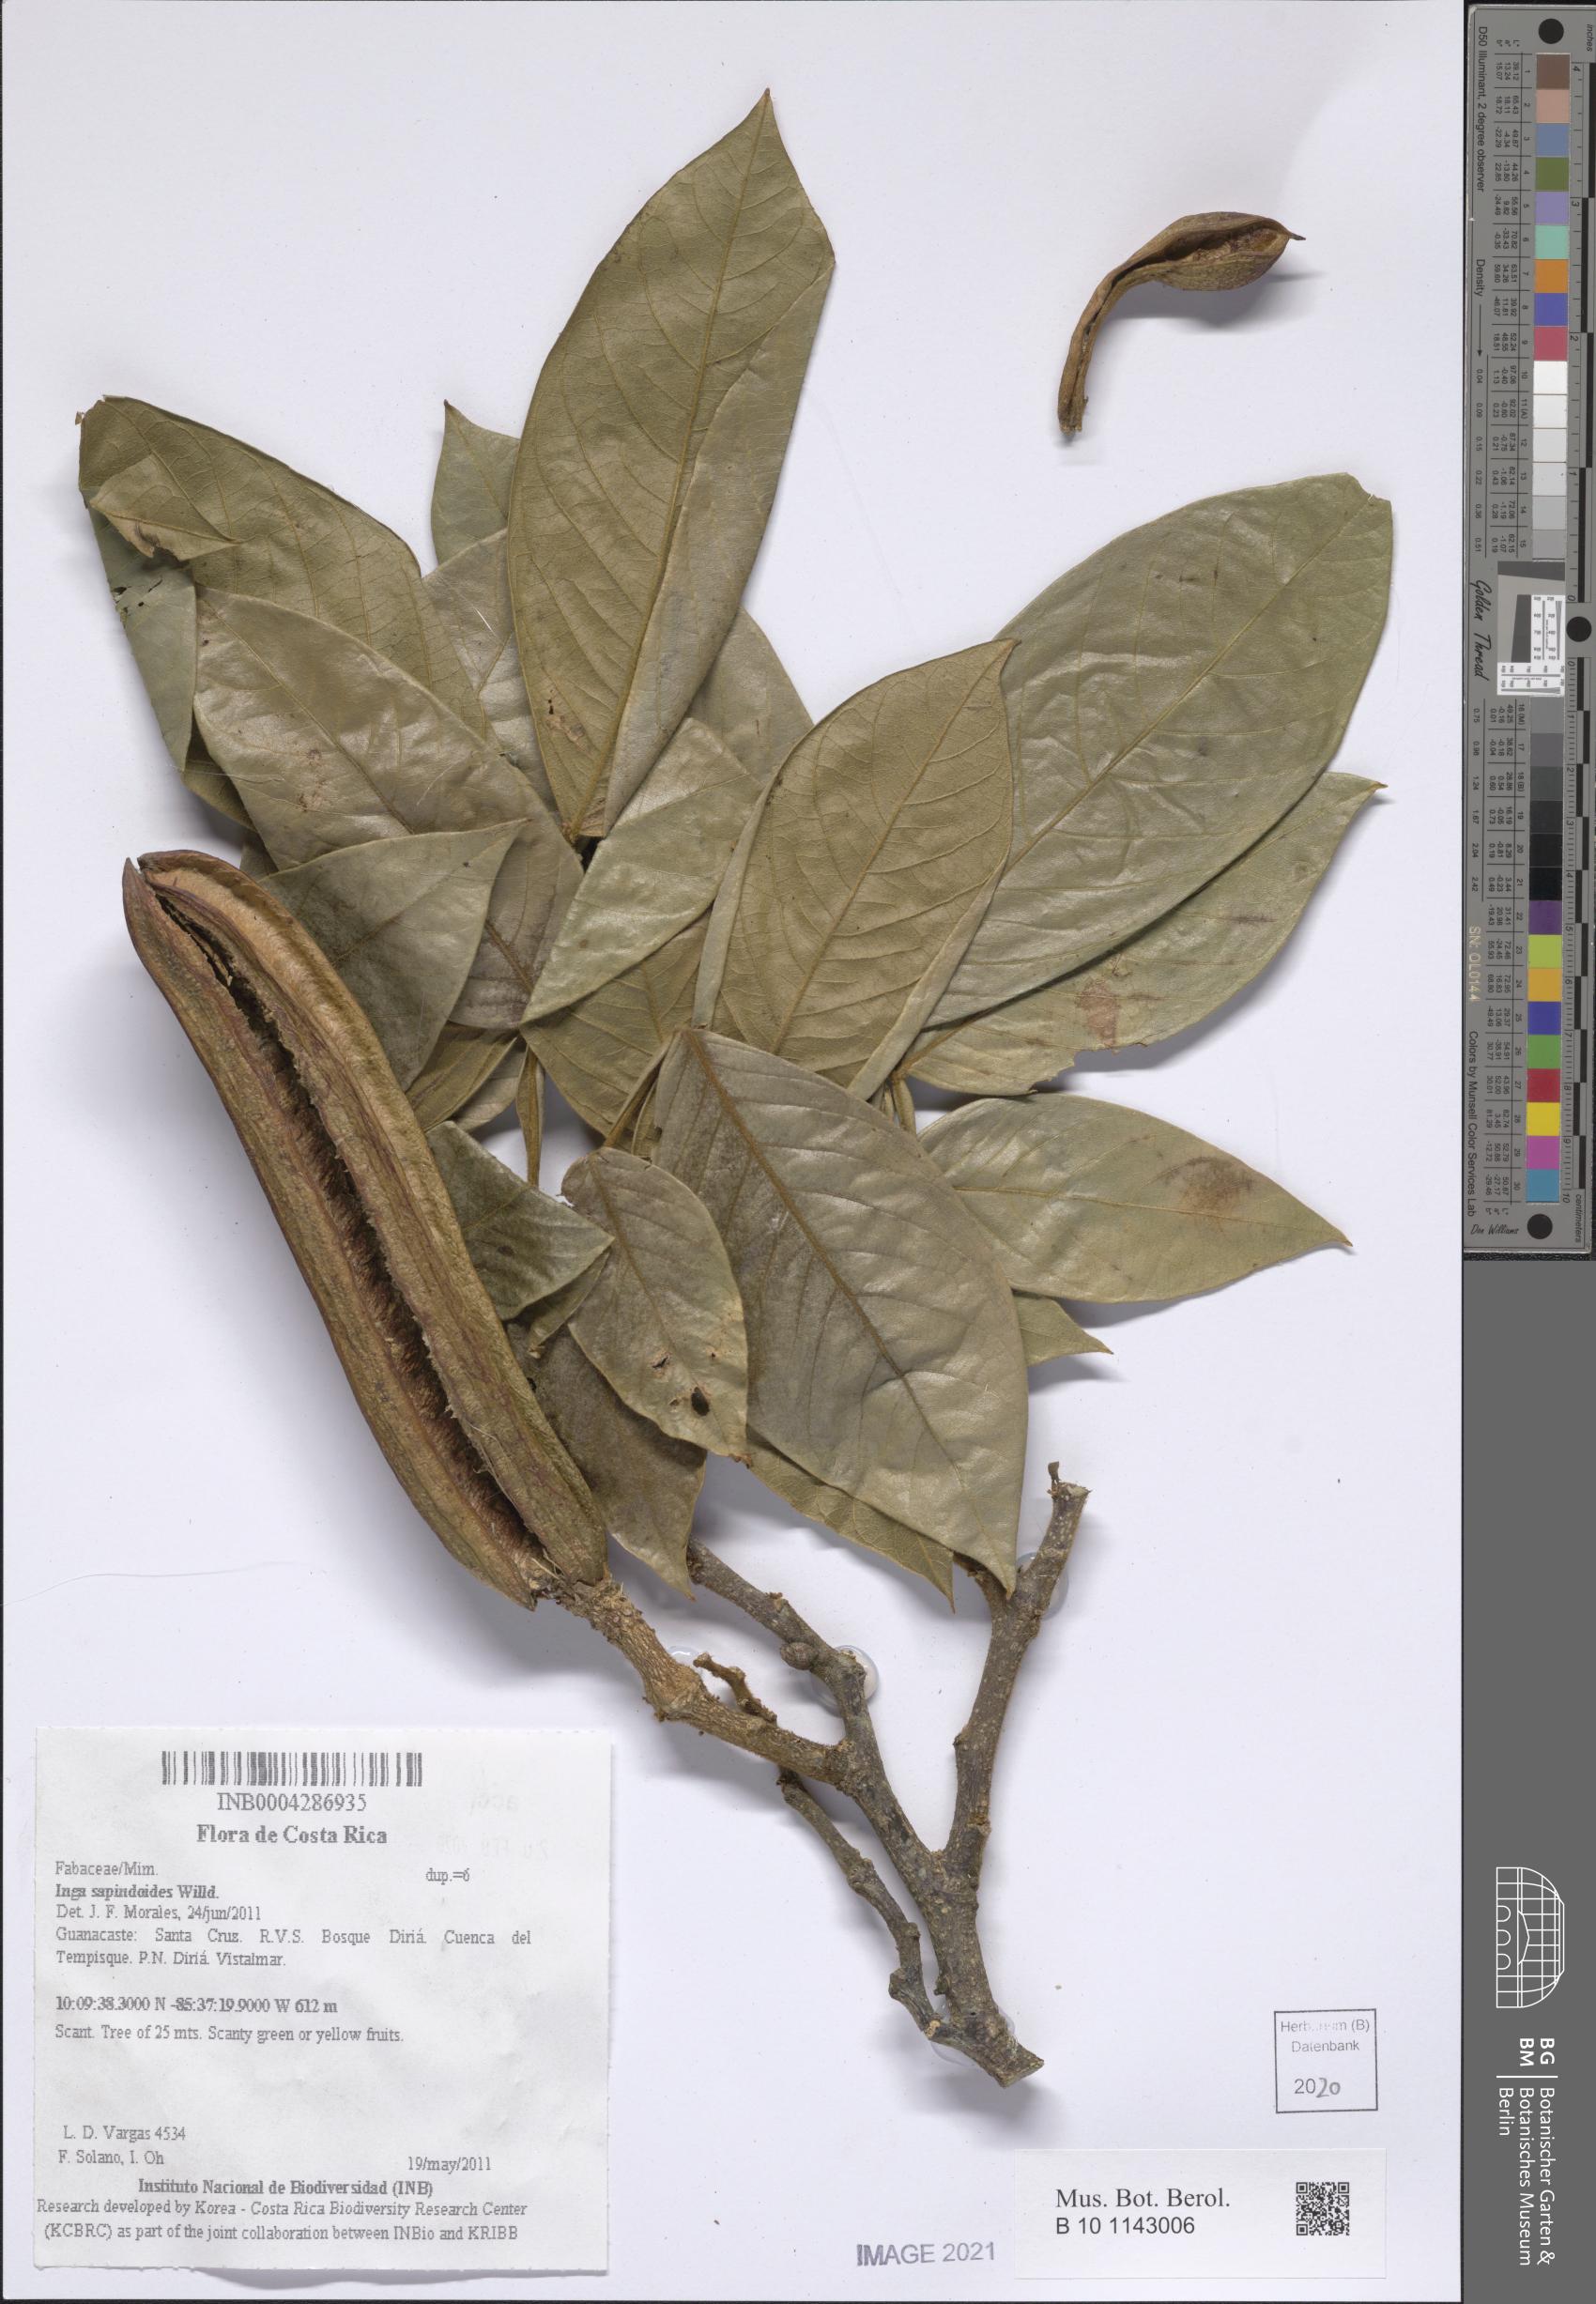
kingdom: Plantae
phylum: Tracheophyta
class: Magnoliopsida
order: Fabales
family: Fabaceae
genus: Inga
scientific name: Inga sapindoides
